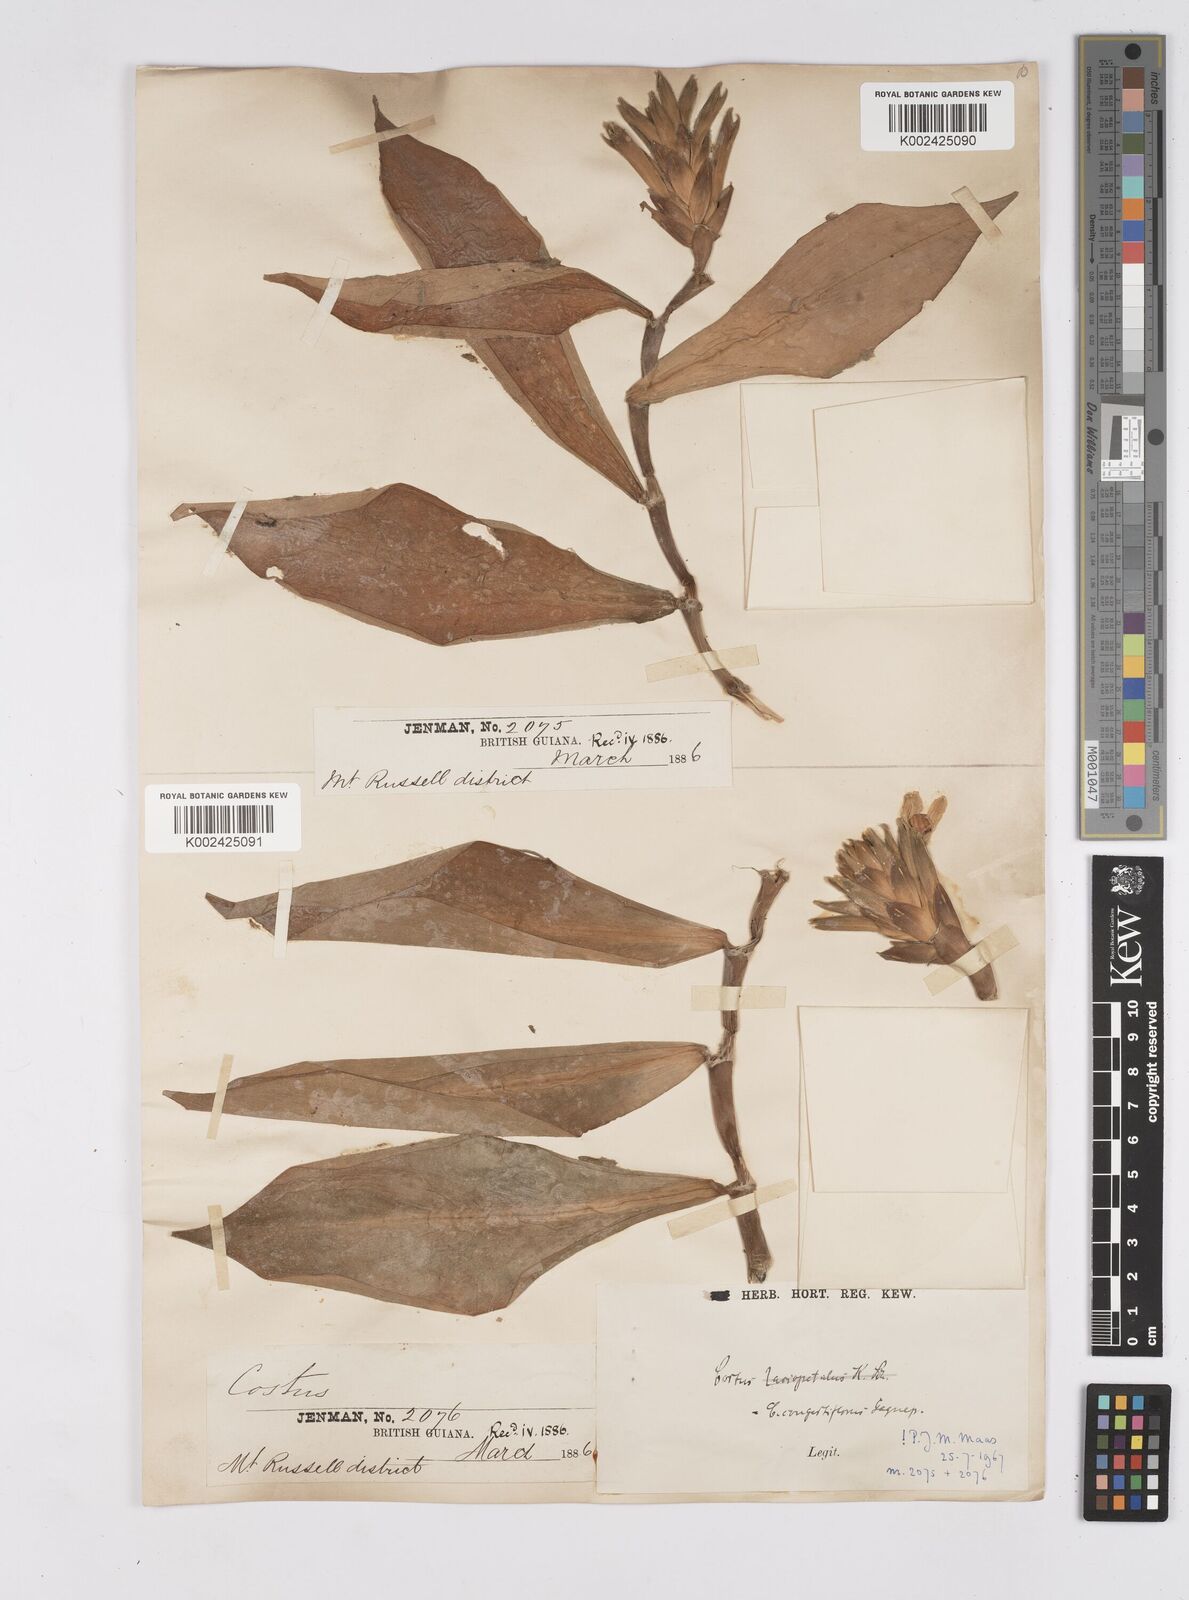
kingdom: Plantae
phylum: Tracheophyta
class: Liliopsida
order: Zingiberales
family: Costaceae
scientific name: Costaceae
